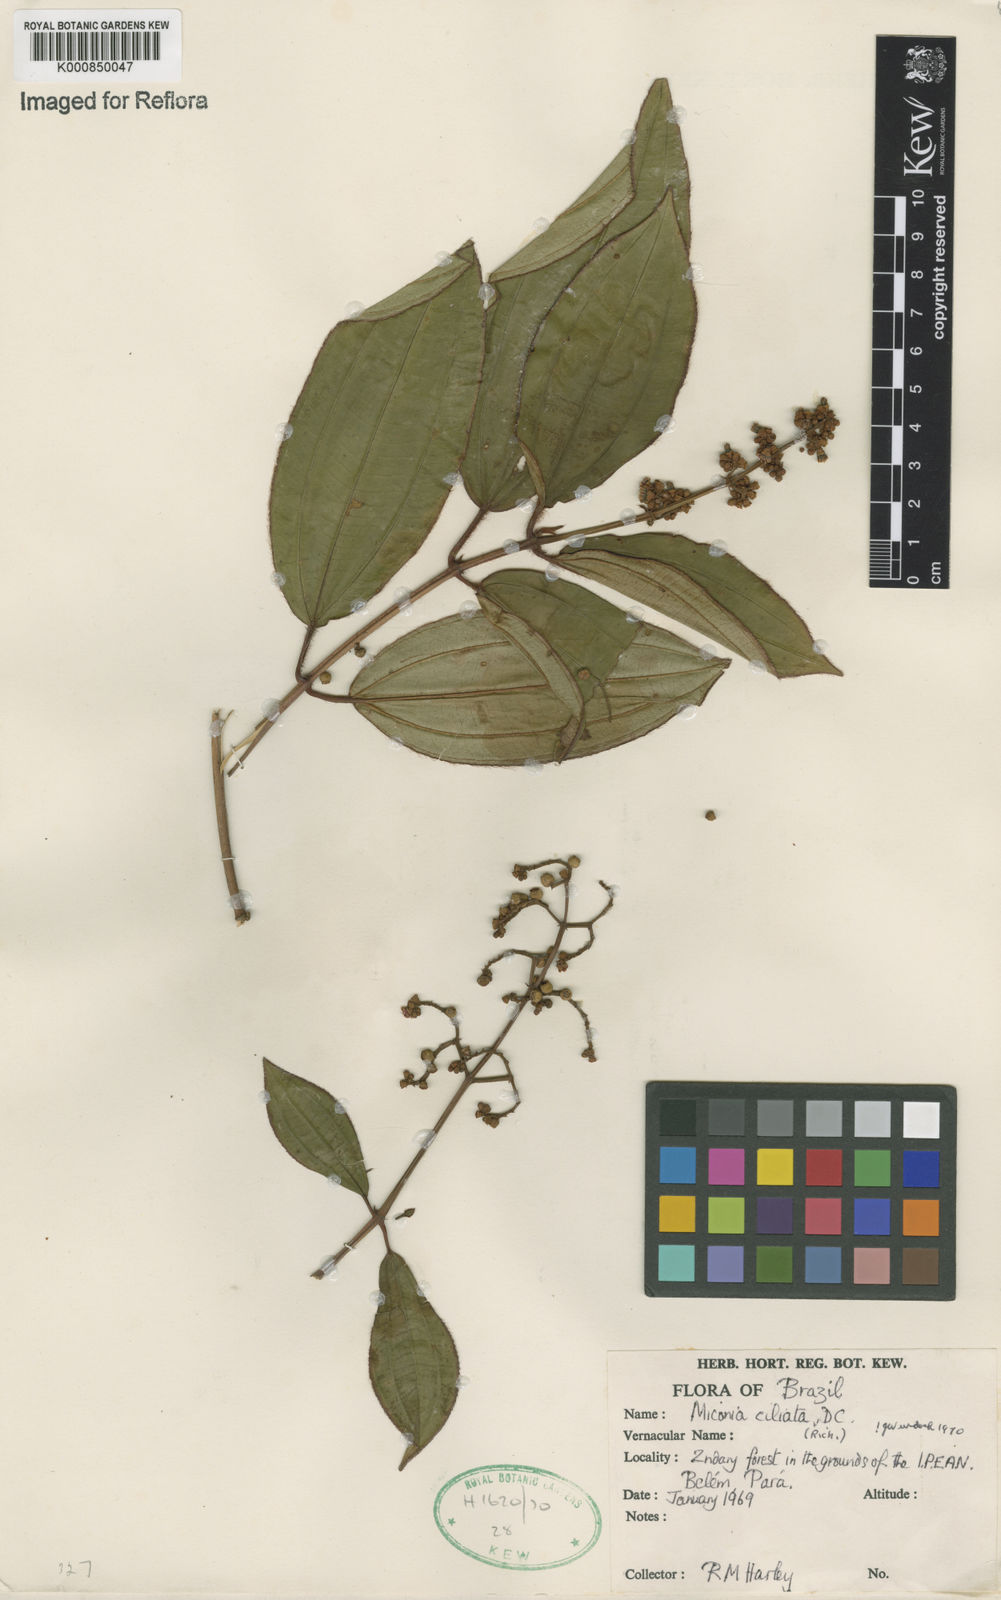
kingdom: Plantae
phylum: Tracheophyta
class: Magnoliopsida
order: Myrtales
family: Melastomataceae
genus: Miconia
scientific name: Miconia ciliata
